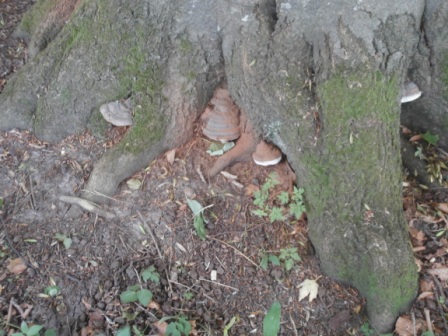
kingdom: Fungi
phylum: Basidiomycota
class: Agaricomycetes
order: Polyporales
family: Polyporaceae
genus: Ganoderma
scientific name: Ganoderma pfeifferi
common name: kobberrød lakporesvamp
